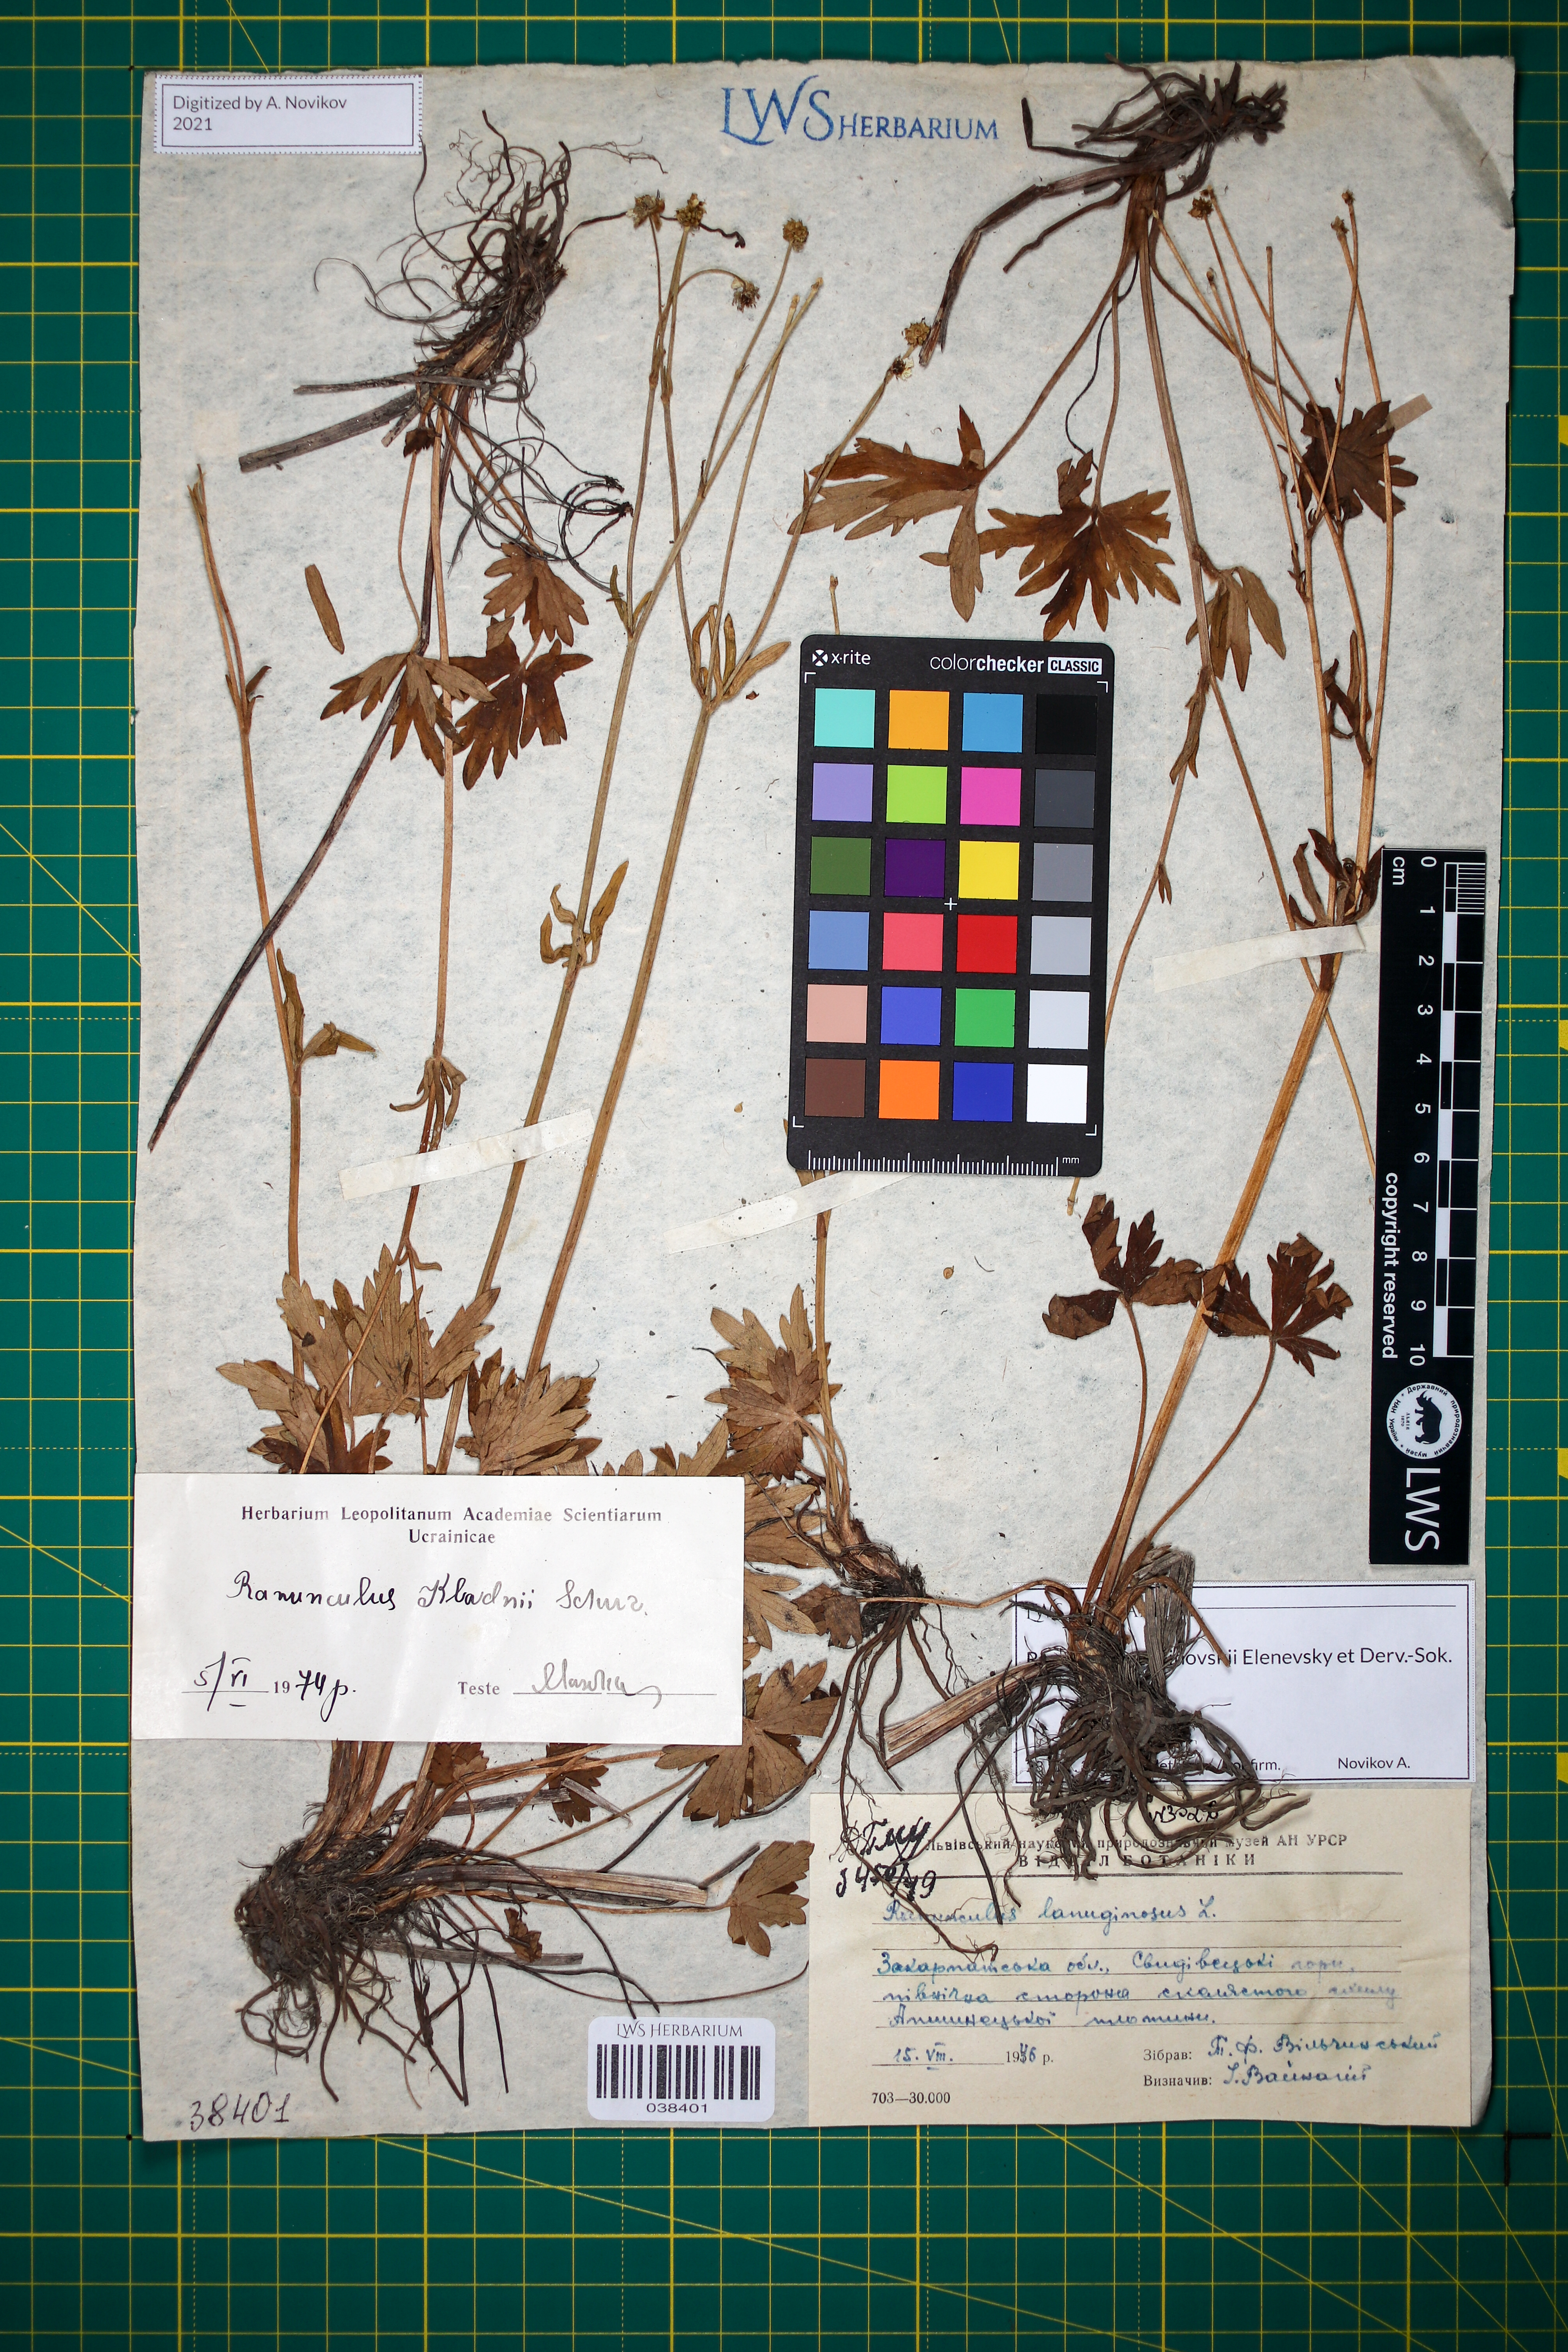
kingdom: Plantae
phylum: Tracheophyta
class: Magnoliopsida
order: Ranunculales
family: Ranunculaceae
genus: Ranunculus
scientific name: Ranunculus malinovskii
